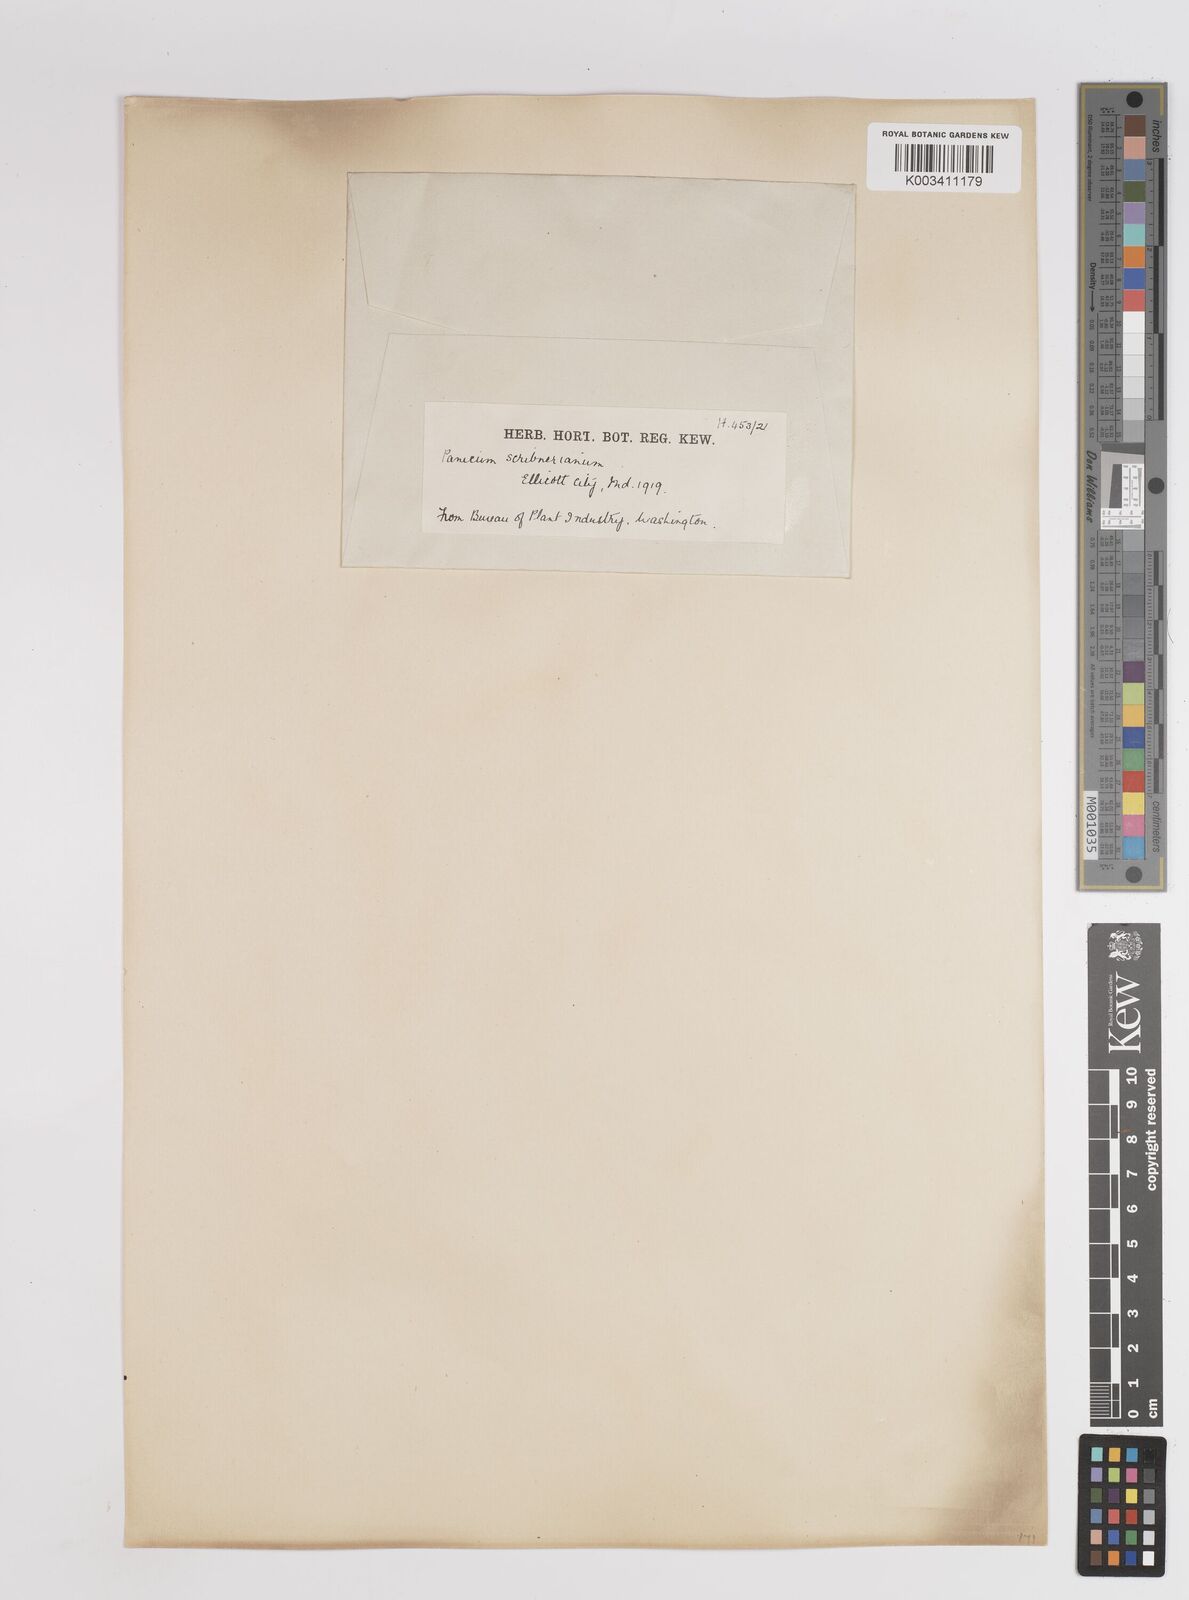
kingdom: Plantae
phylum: Tracheophyta
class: Liliopsida
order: Poales
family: Poaceae
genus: Dichanthelium
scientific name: Dichanthelium scribnerianum
